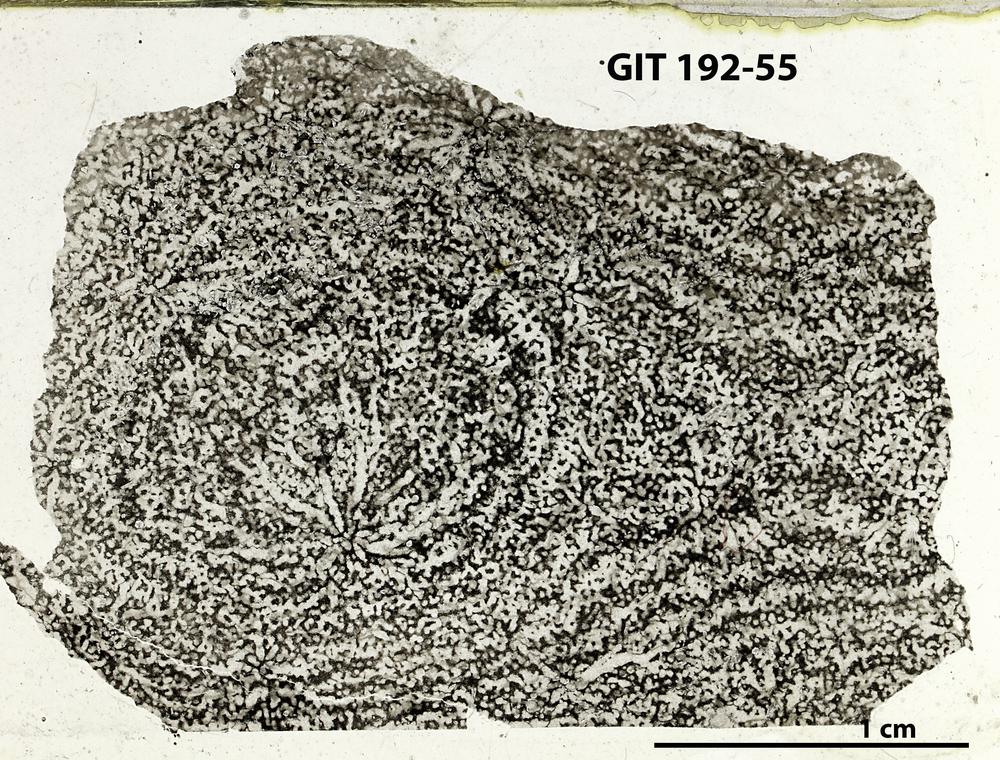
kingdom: Animalia
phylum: Porifera
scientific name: Porifera
